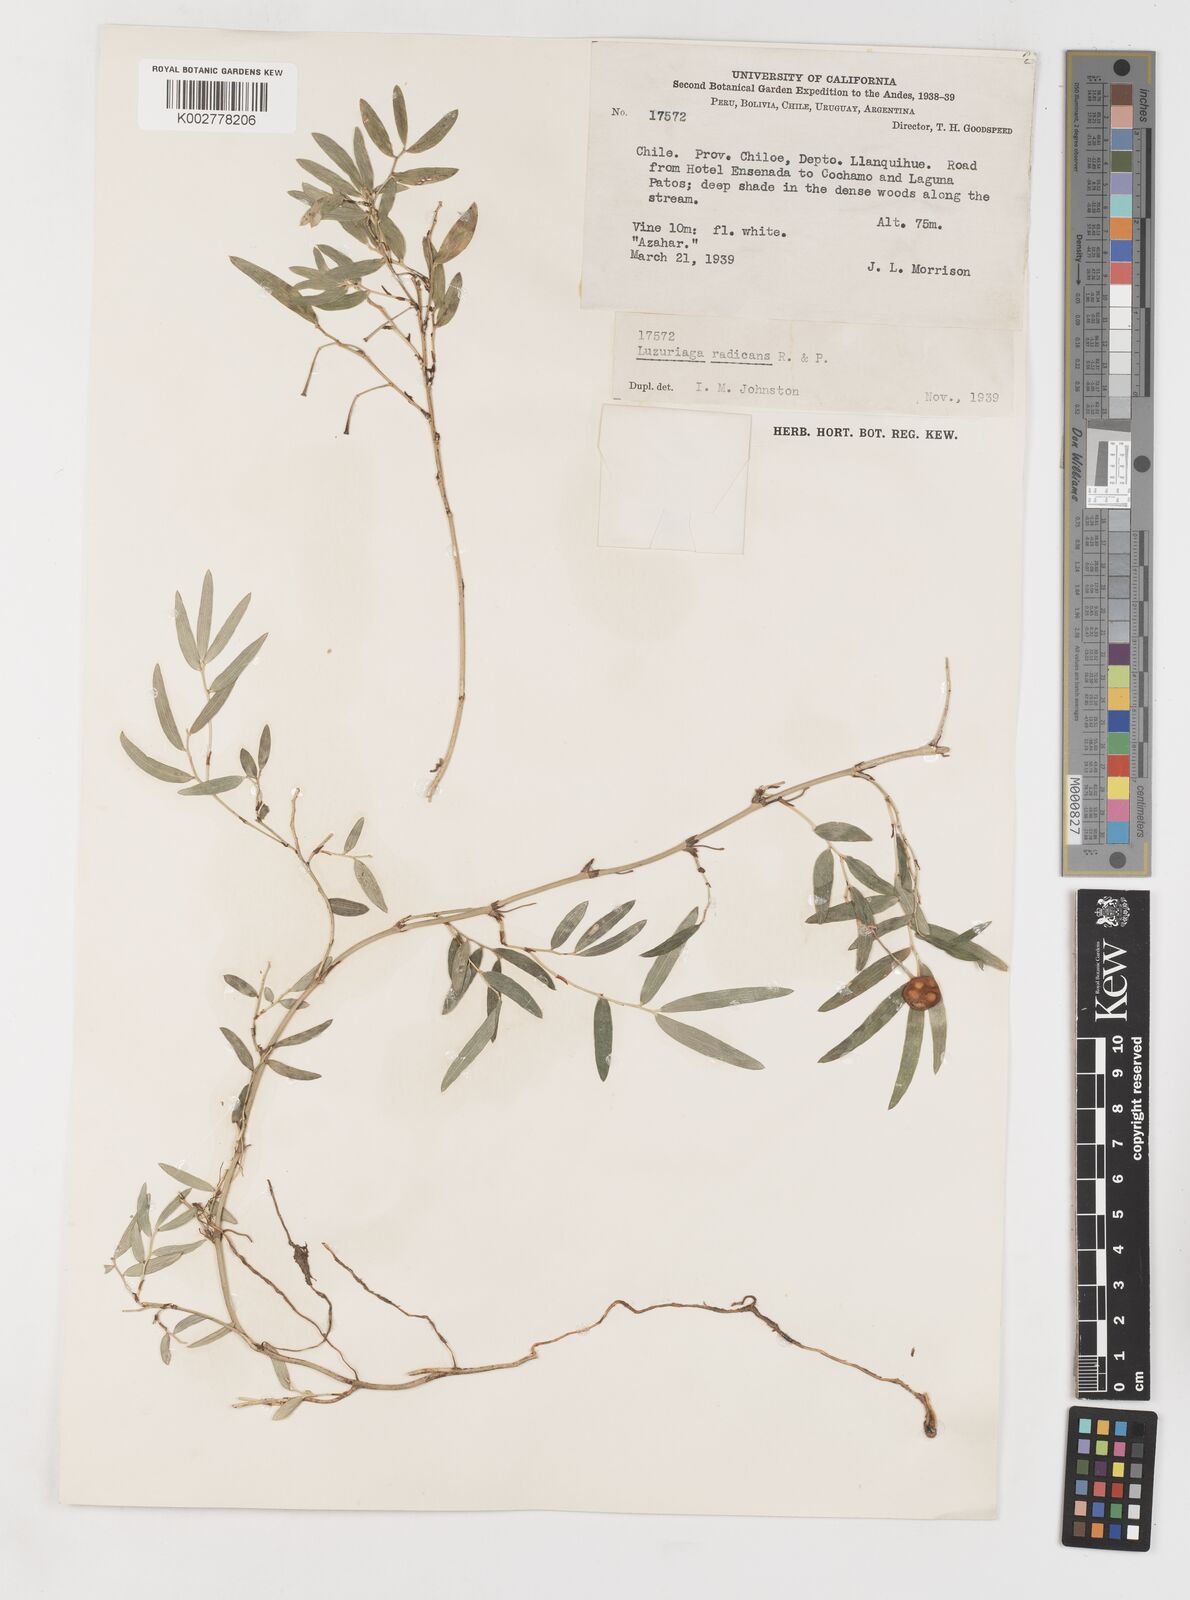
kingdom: Plantae
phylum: Tracheophyta
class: Liliopsida
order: Liliales
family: Alstroemeriaceae
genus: Luzuriaga
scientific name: Luzuriaga radicans
